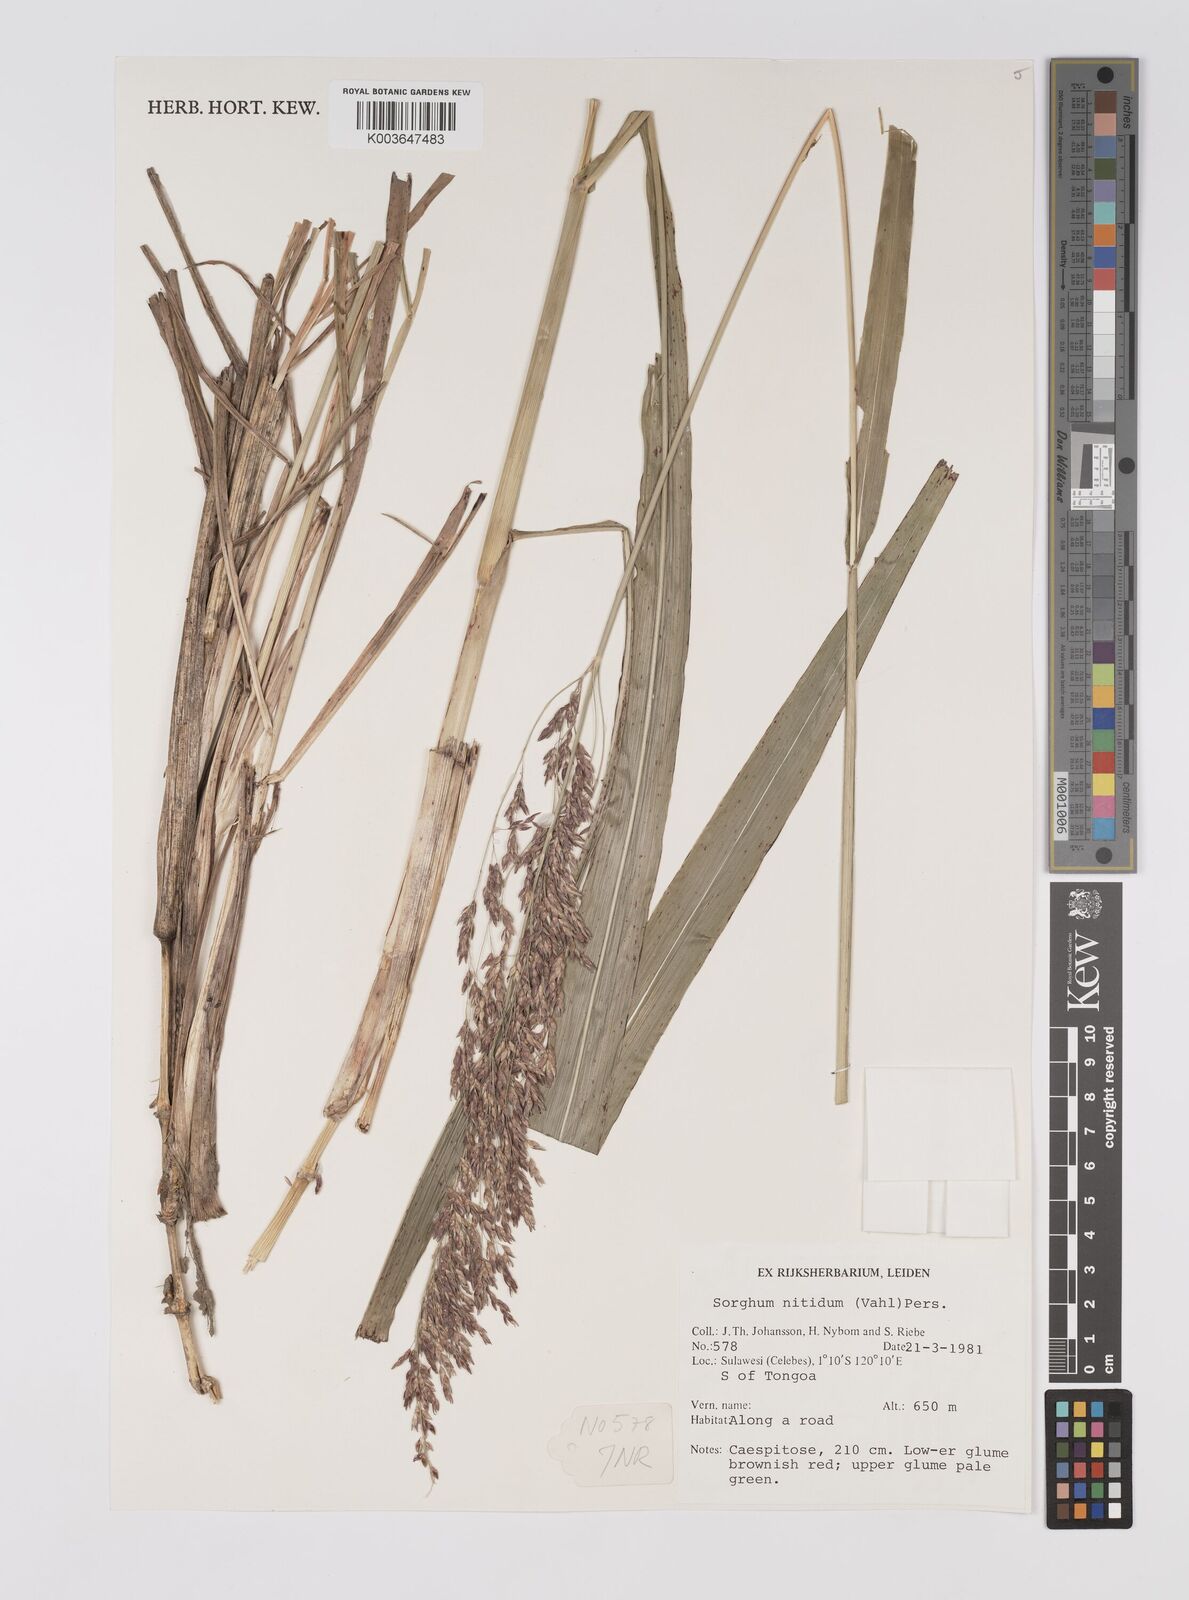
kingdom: Plantae
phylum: Tracheophyta
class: Liliopsida
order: Poales
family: Poaceae
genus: Sorghum
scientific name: Sorghum arundinaceum
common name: Sorghum
